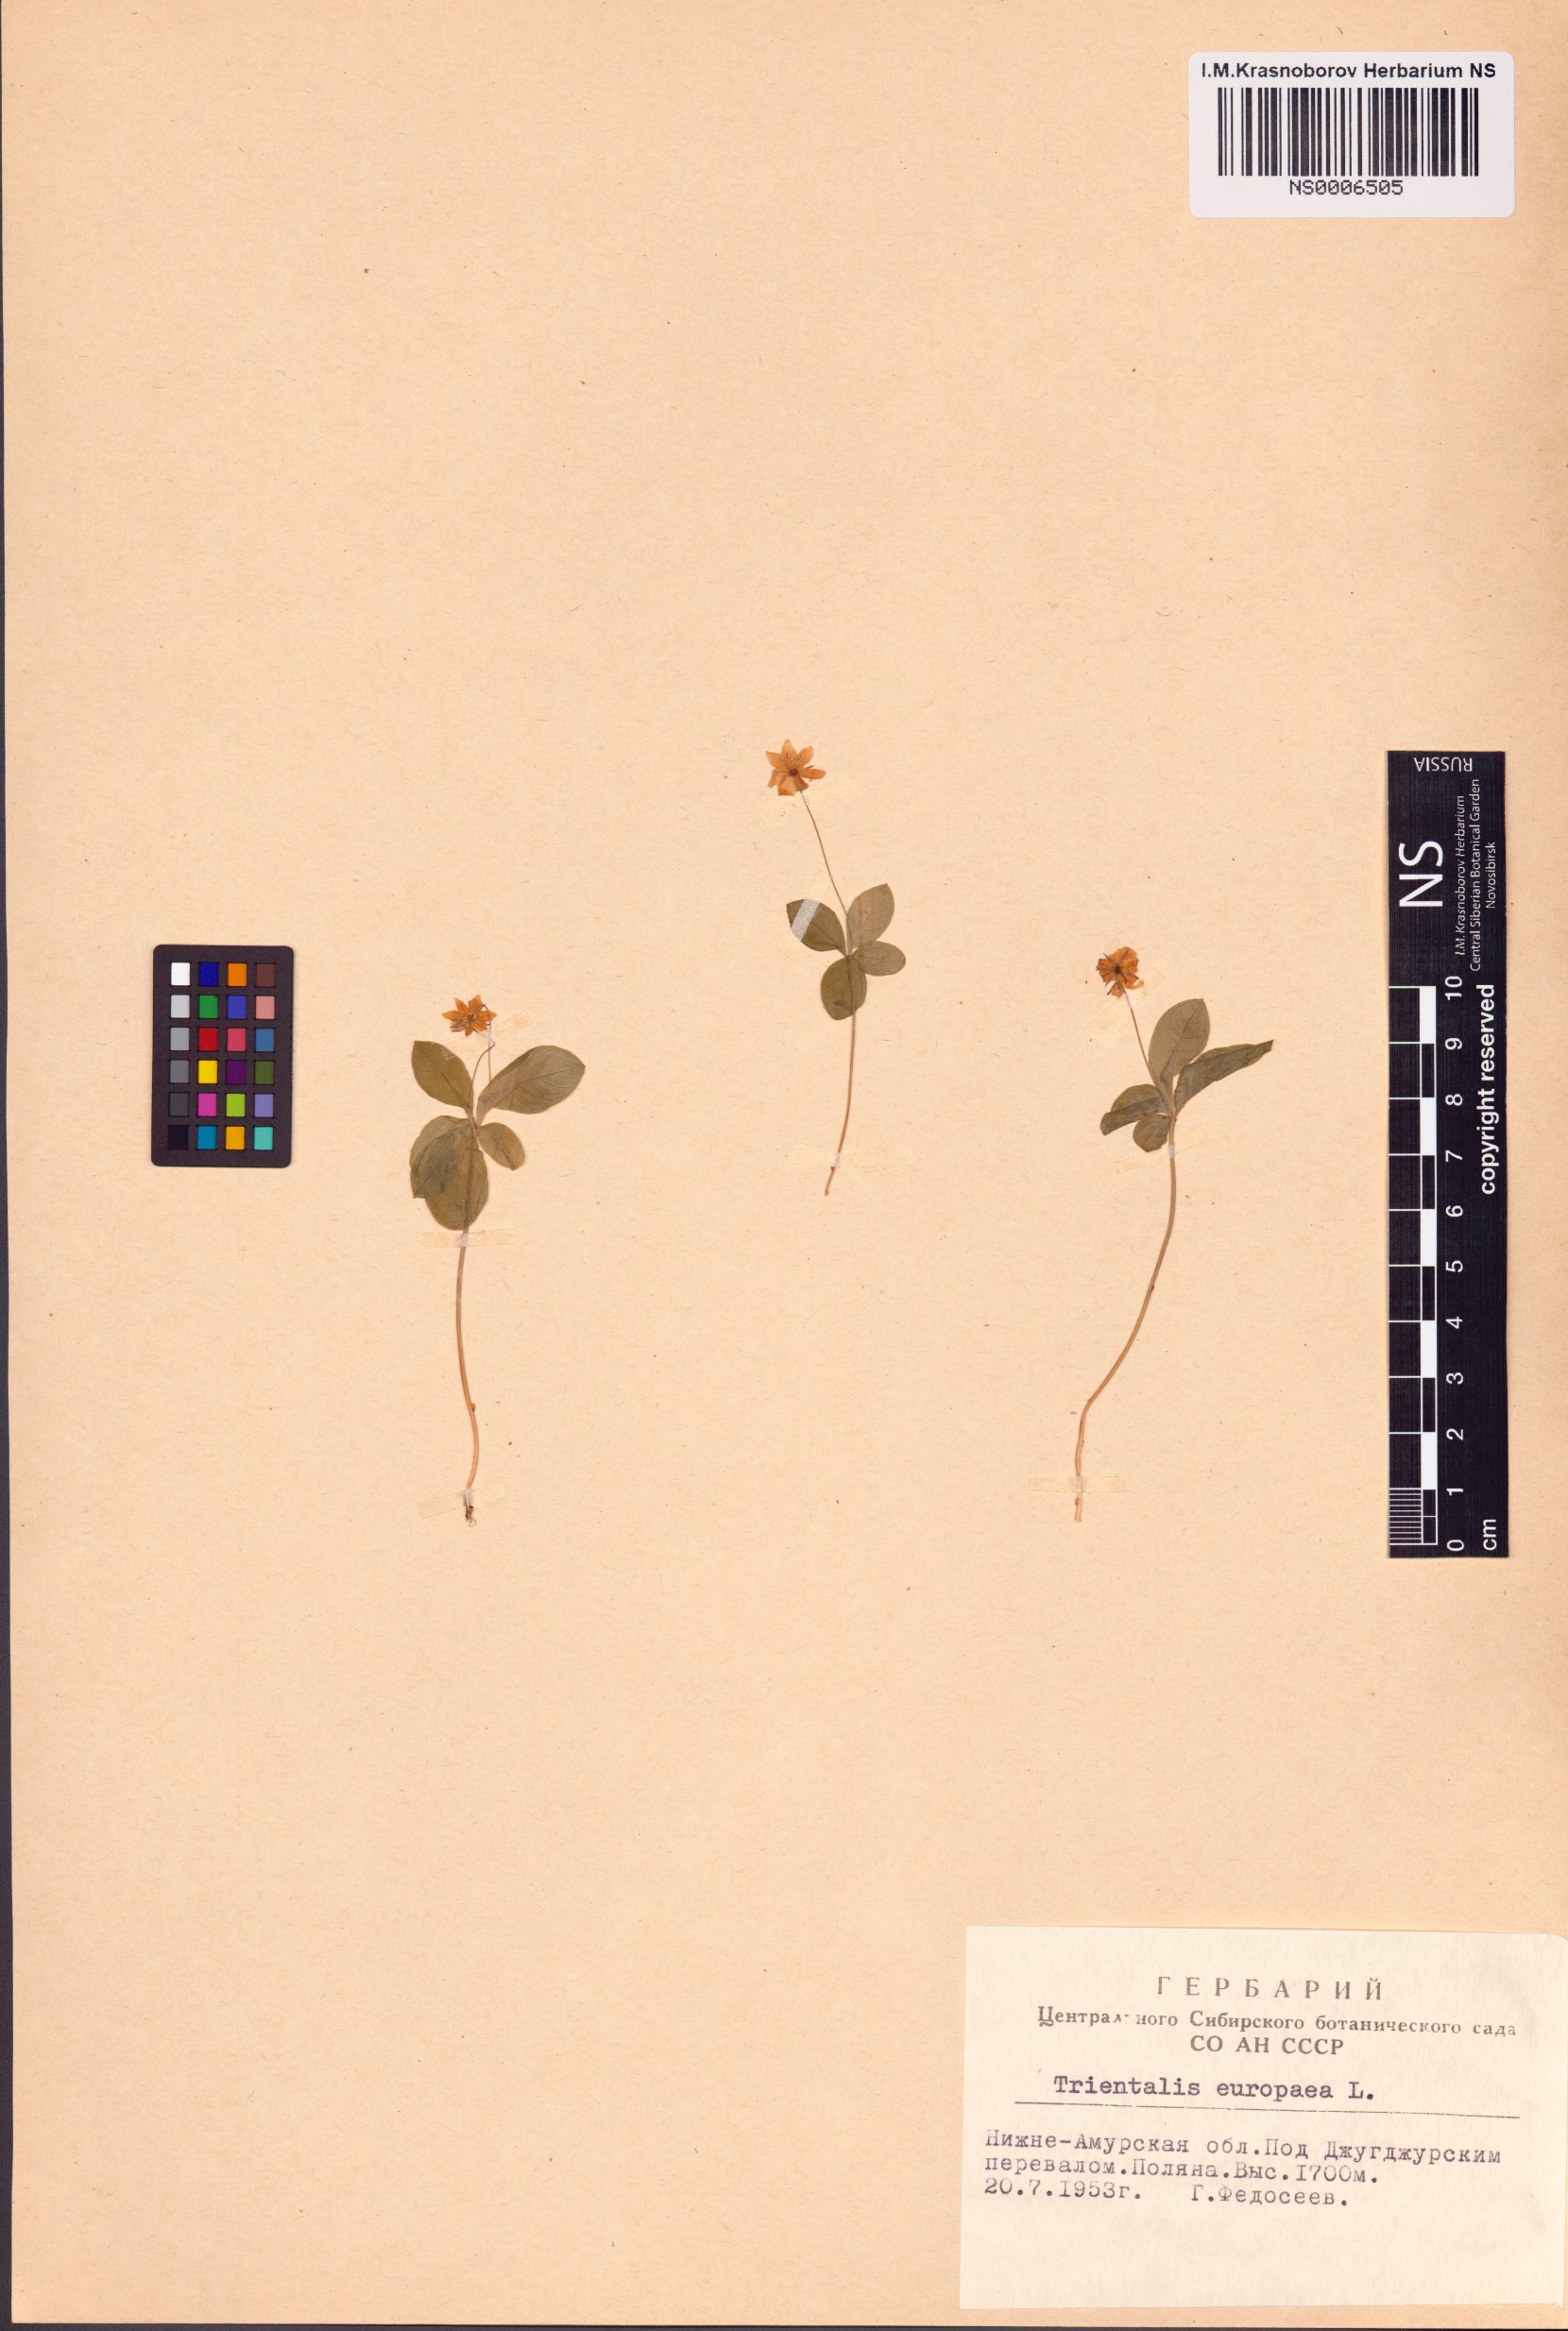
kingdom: Plantae
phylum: Tracheophyta
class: Magnoliopsida
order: Ericales
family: Primulaceae
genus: Lysimachia
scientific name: Lysimachia europaea
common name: Arctic starflower
